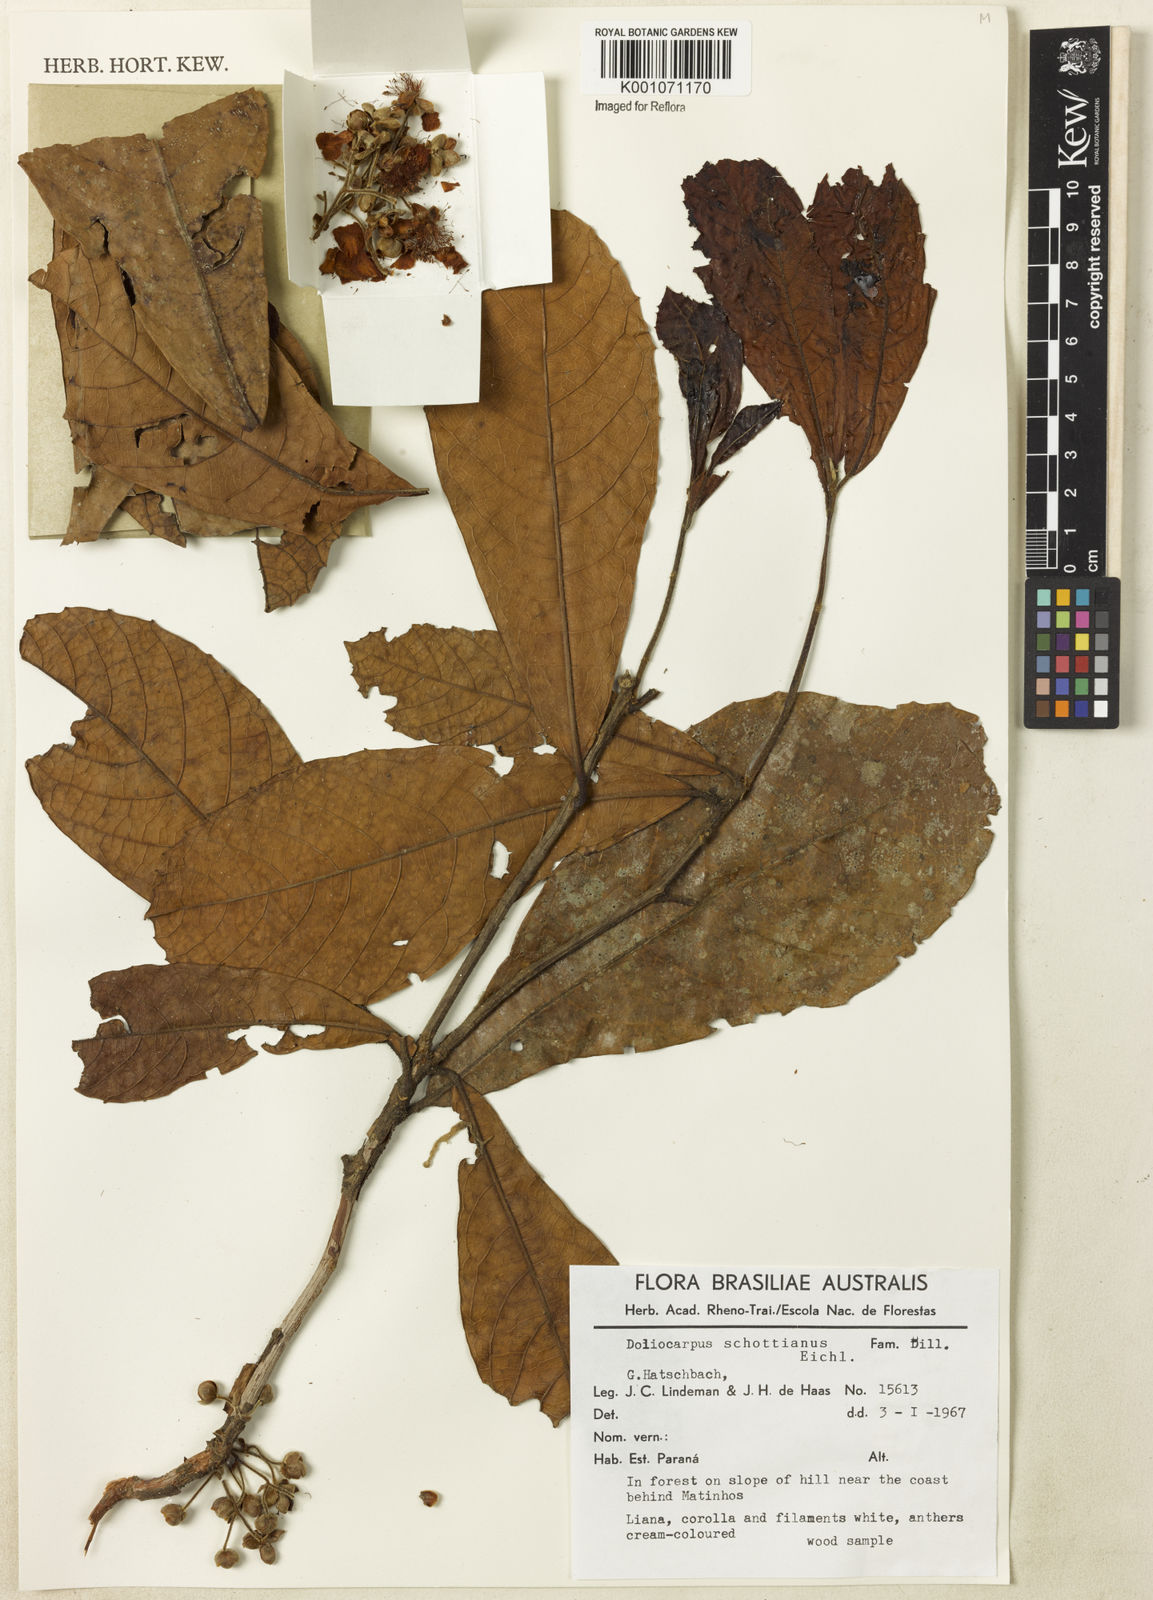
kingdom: Plantae
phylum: Tracheophyta
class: Magnoliopsida
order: Dilleniales
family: Dilleniaceae
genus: Doliocarpus
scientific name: Doliocarpus schottianus
